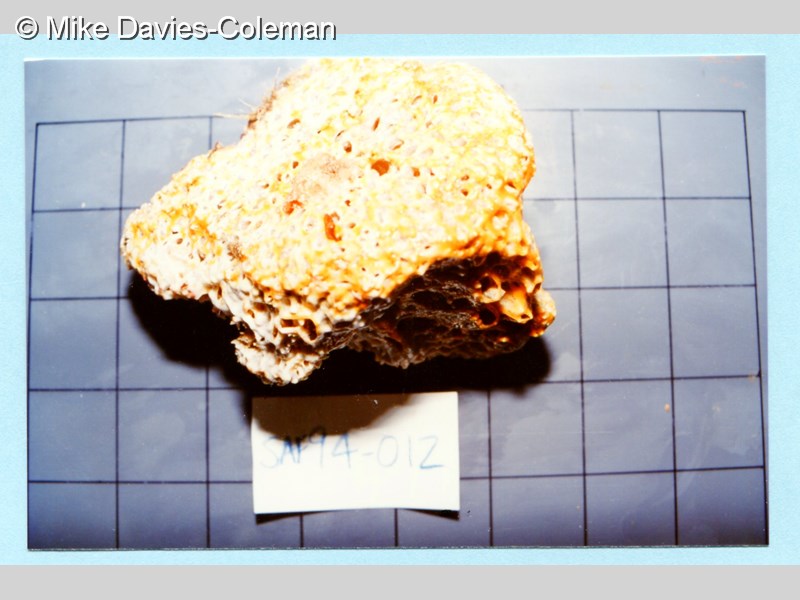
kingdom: Animalia
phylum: Chordata
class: Ascidiacea
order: Aplousobranchia
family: Didemnidae
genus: Trididemnum
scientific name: Trididemnum
